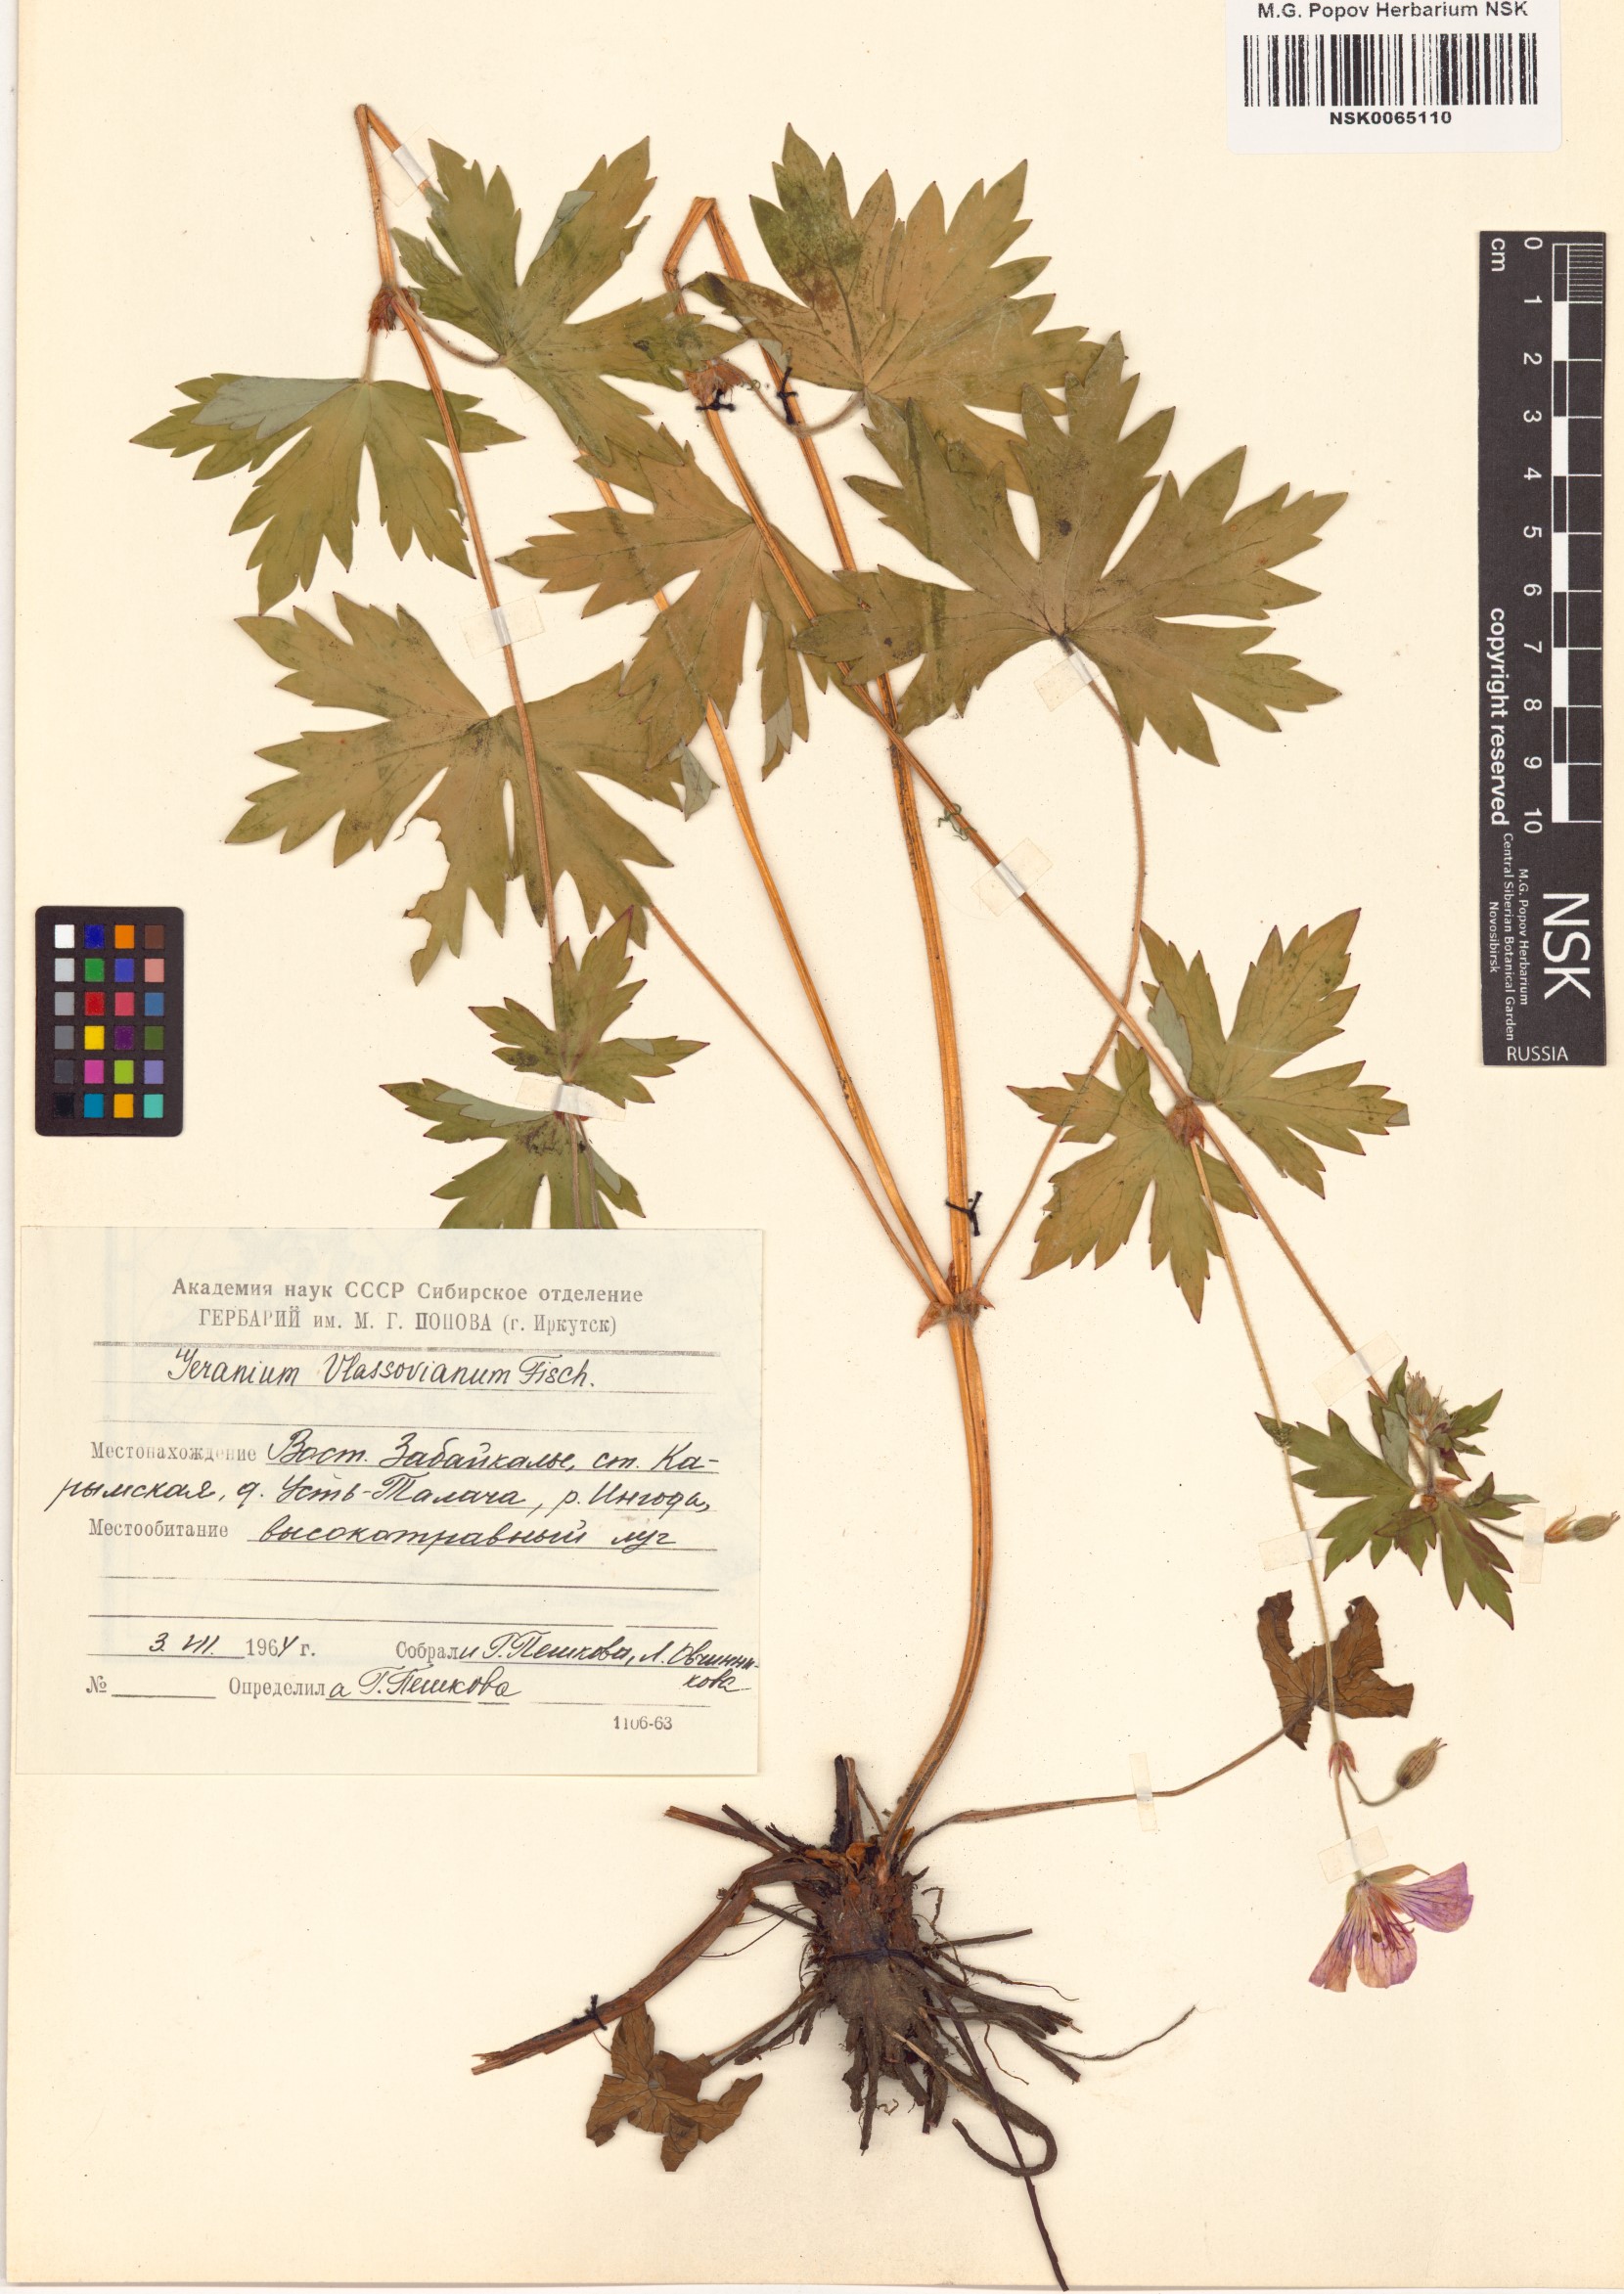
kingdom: Plantae
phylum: Tracheophyta
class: Magnoliopsida
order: Geraniales
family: Geraniaceae
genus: Geranium
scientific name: Geranium wlassovianum
